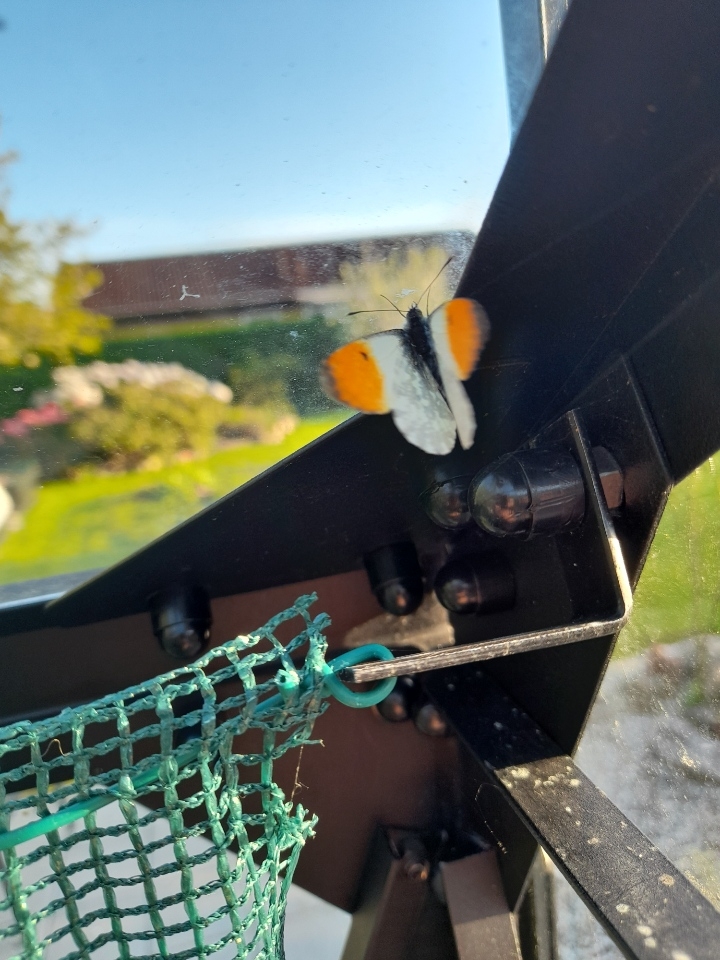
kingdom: Animalia
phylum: Arthropoda
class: Insecta
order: Lepidoptera
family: Pieridae
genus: Anthocharis
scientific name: Anthocharis cardamines
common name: Aurora
